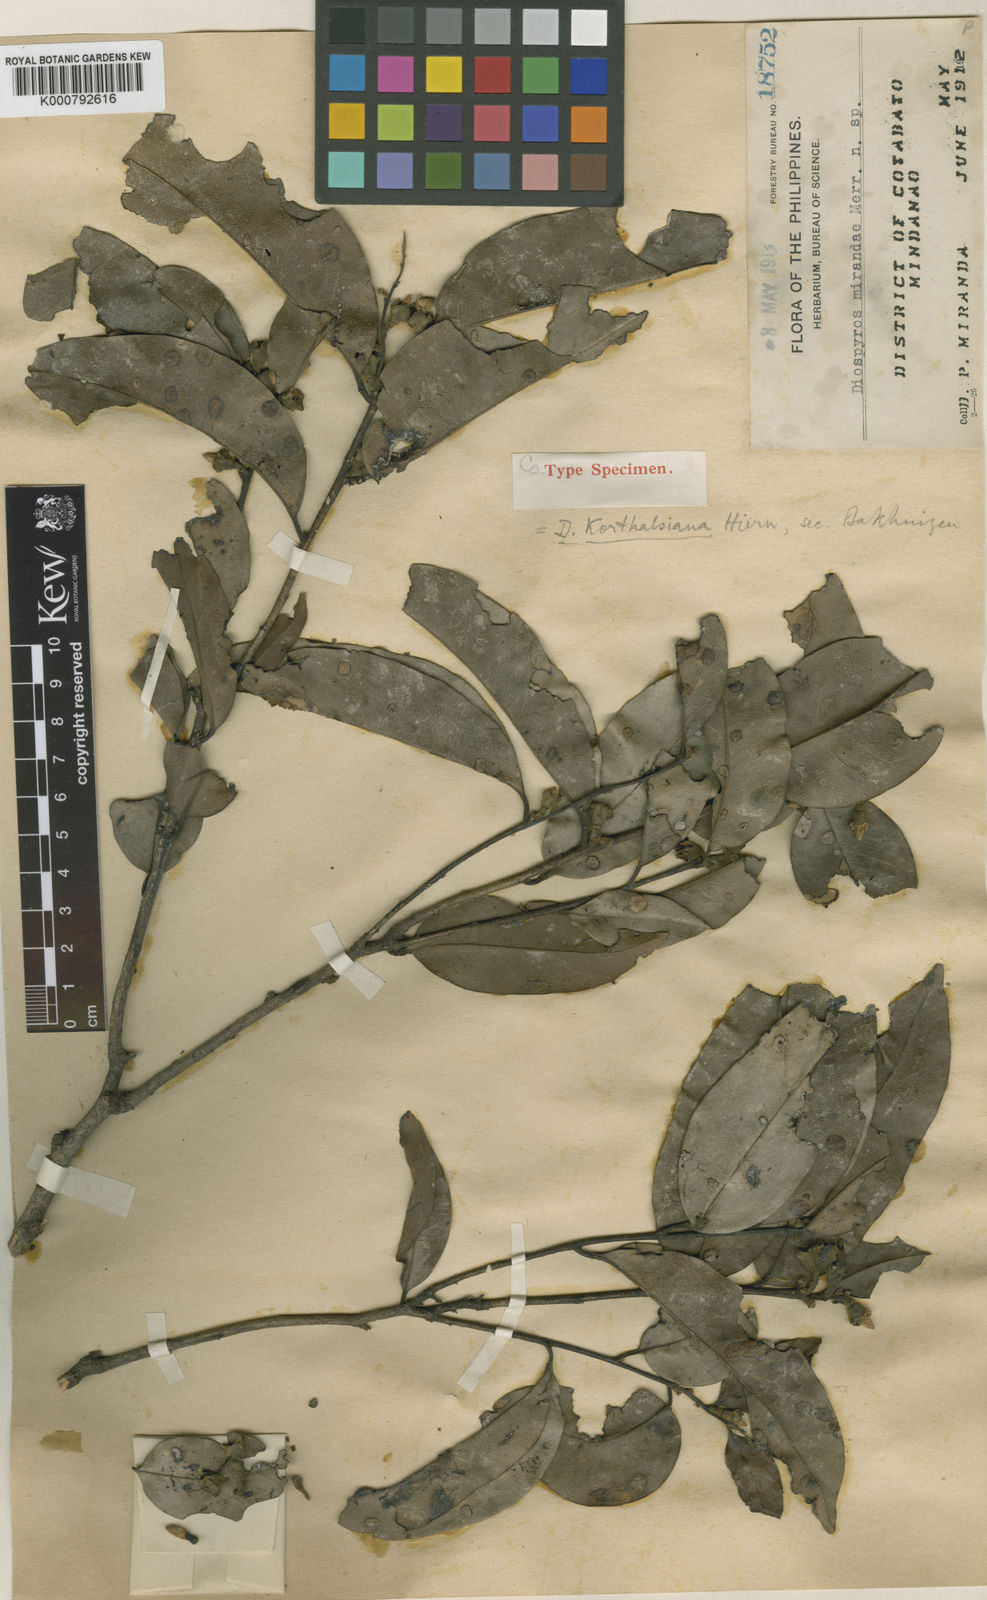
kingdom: Plantae
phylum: Tracheophyta
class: Magnoliopsida
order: Ericales
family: Ebenaceae
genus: Diospyros
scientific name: Diospyros korthalsiana
